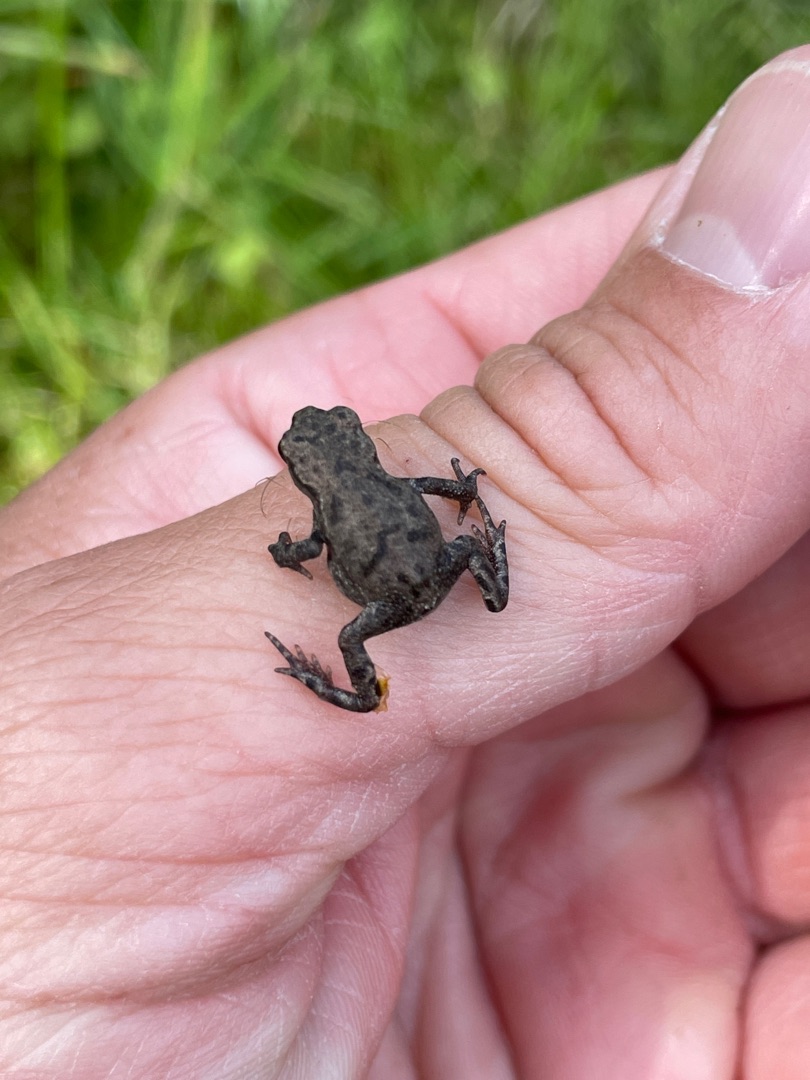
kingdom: Animalia
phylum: Chordata
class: Amphibia
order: Anura
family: Bufonidae
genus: Bufo
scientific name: Bufo bufo
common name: Skrubtudse
